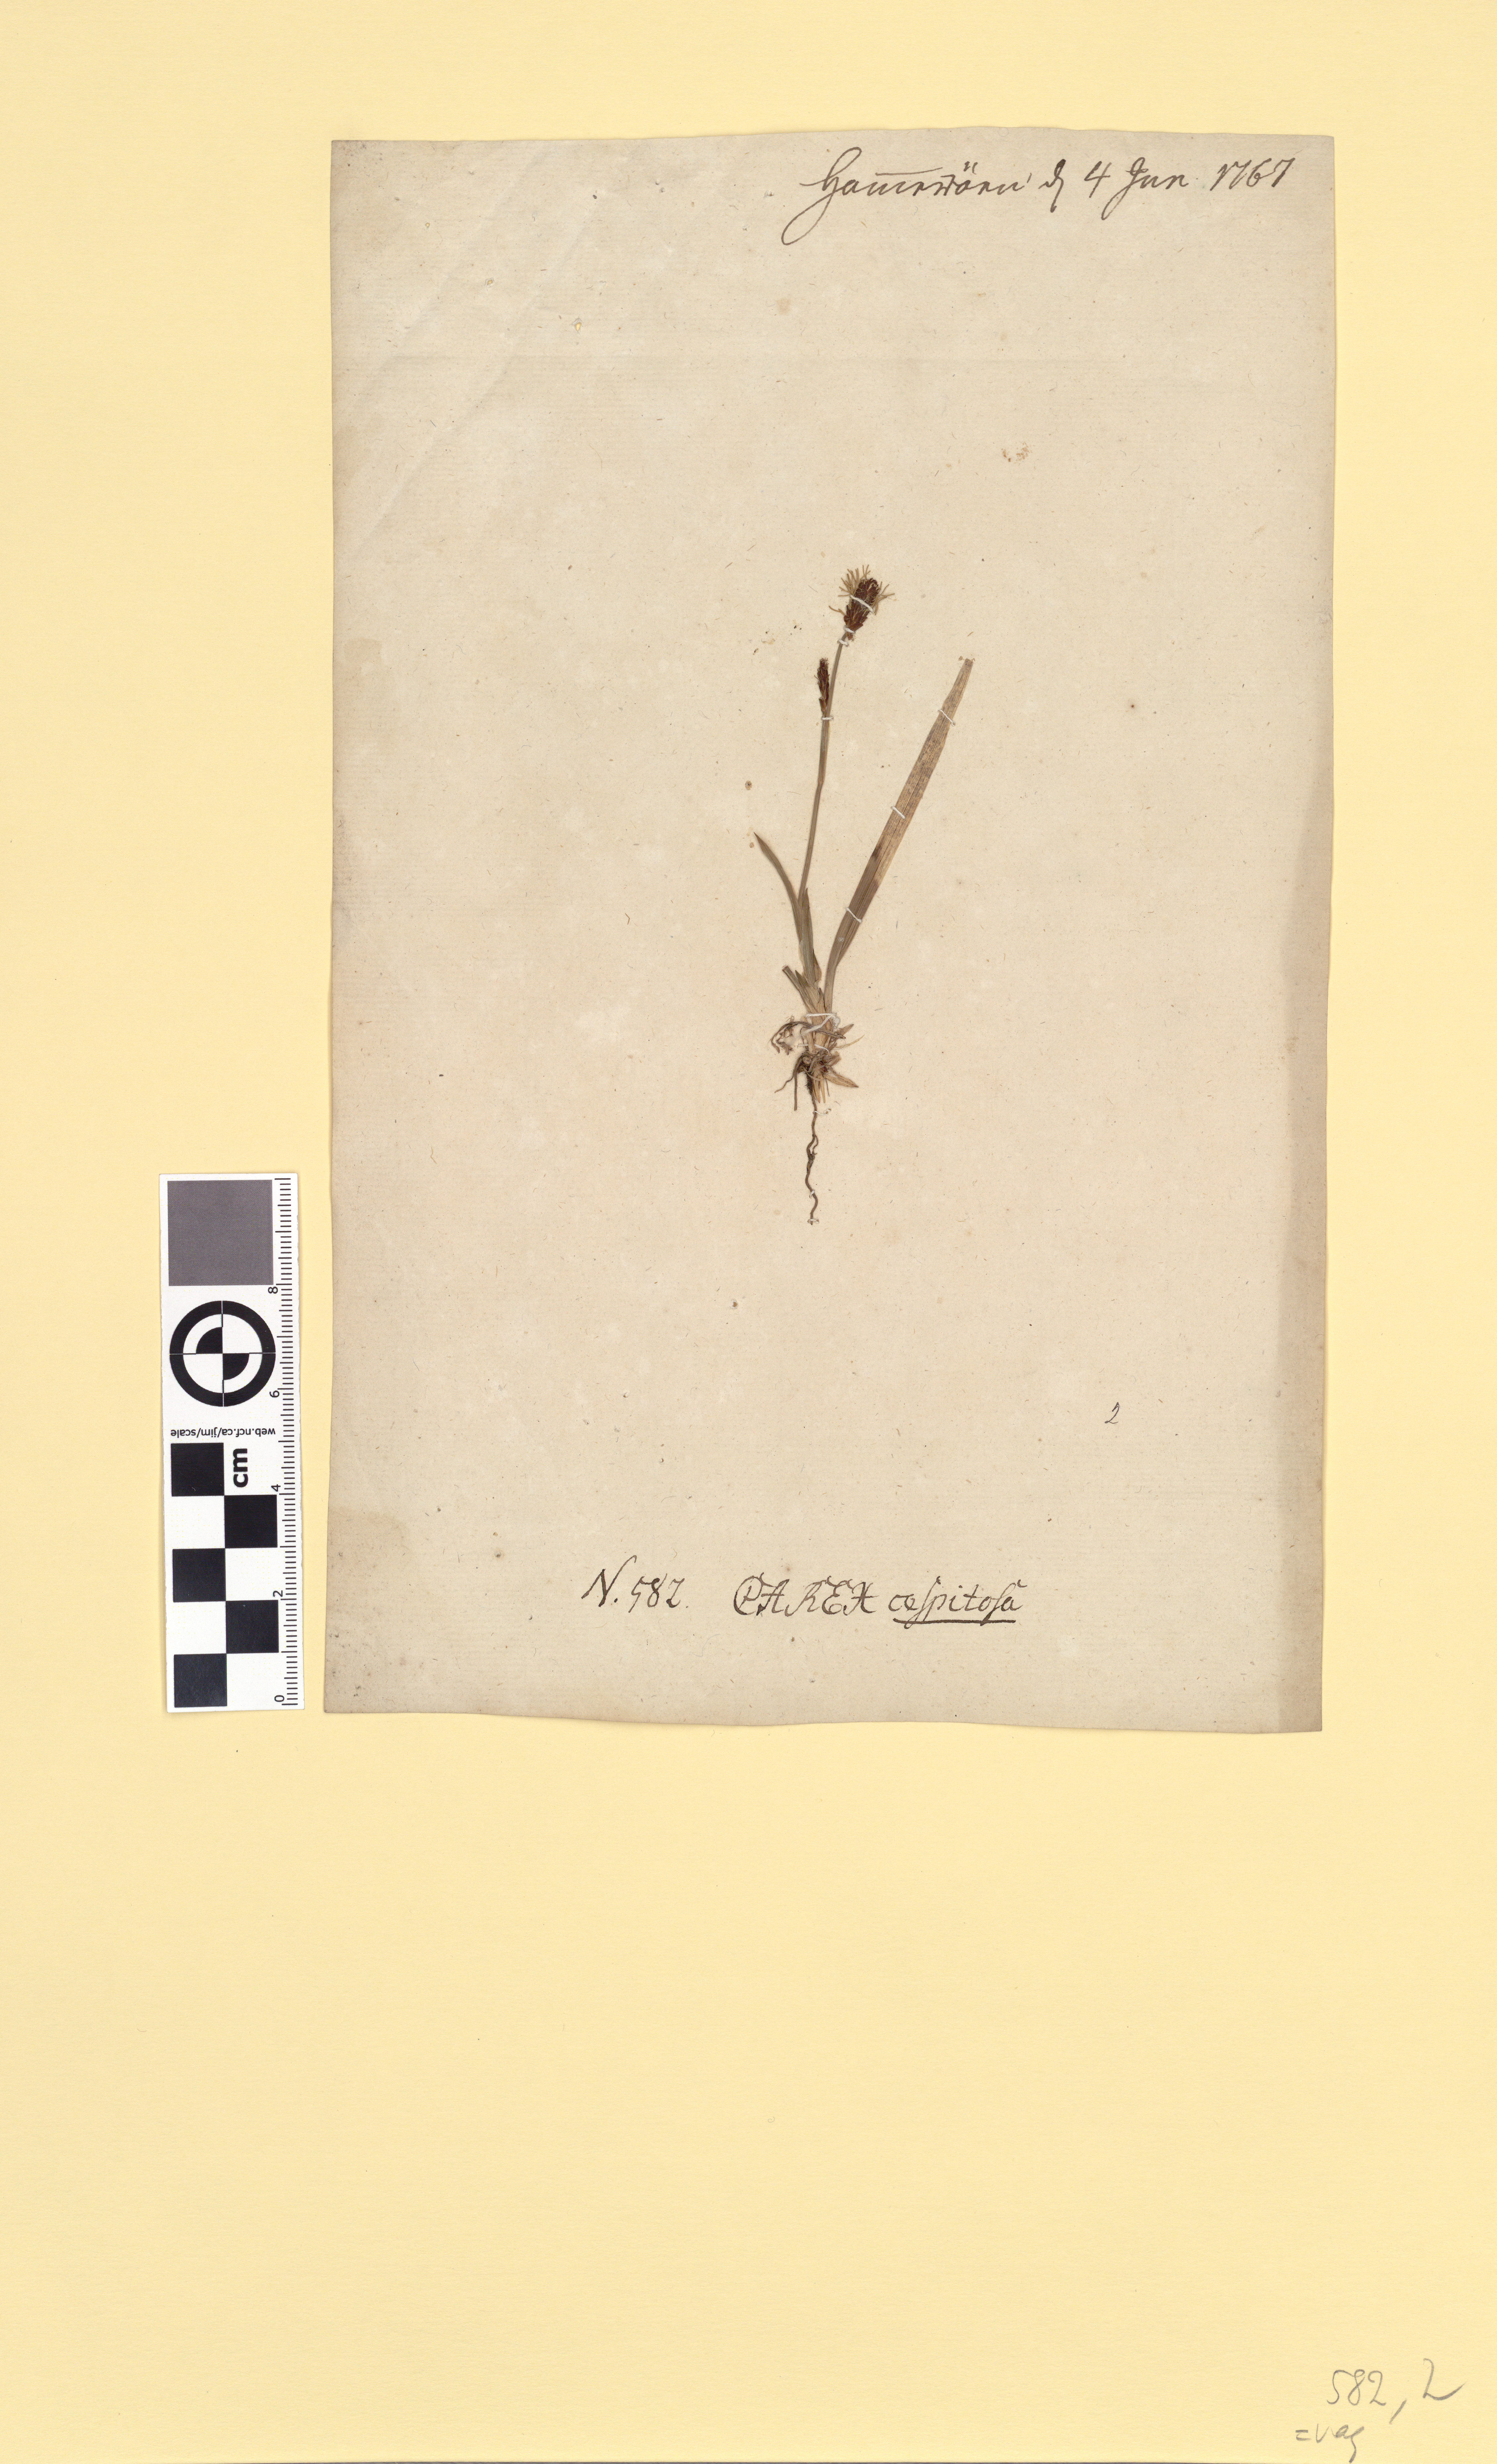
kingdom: Plantae
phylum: Tracheophyta
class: Liliopsida
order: Poales
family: Cyperaceae
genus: Carex
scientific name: Carex vaginata
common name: Sheathed sedge
